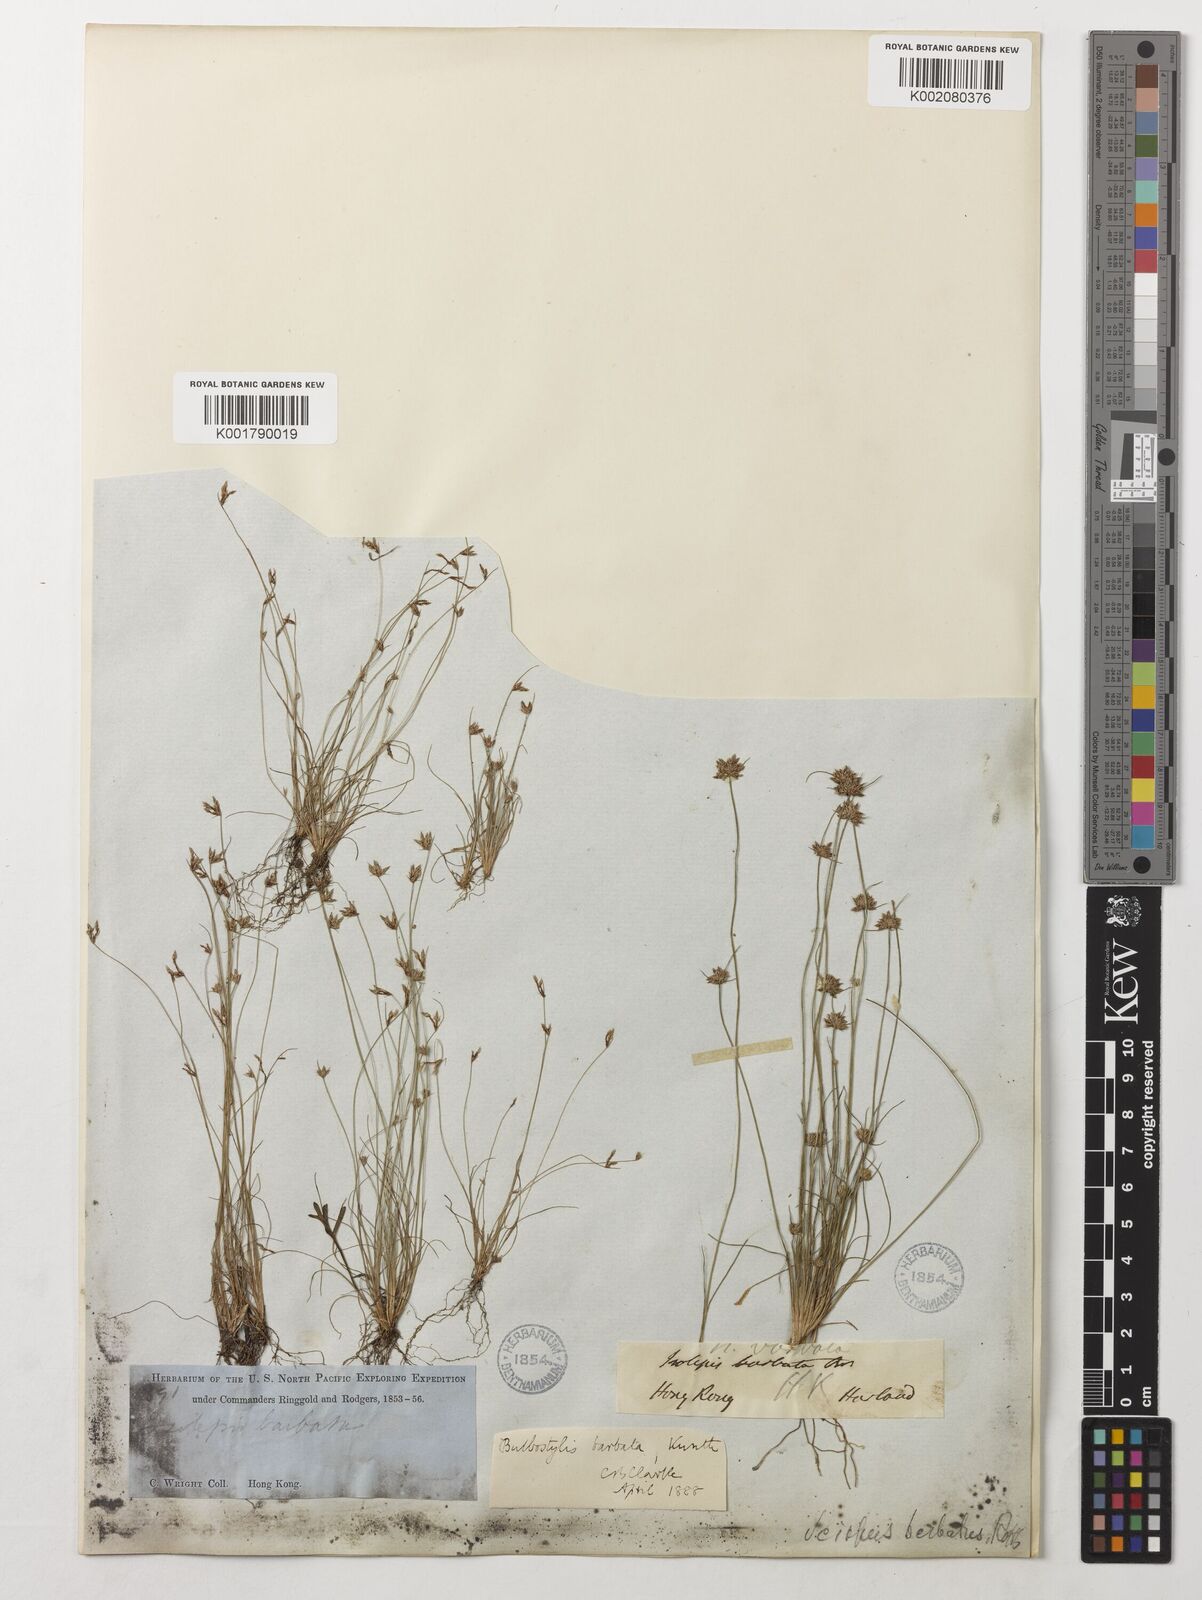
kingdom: Plantae
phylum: Tracheophyta
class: Liliopsida
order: Poales
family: Cyperaceae
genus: Bulbostylis
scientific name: Bulbostylis barbata
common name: Watergrass
